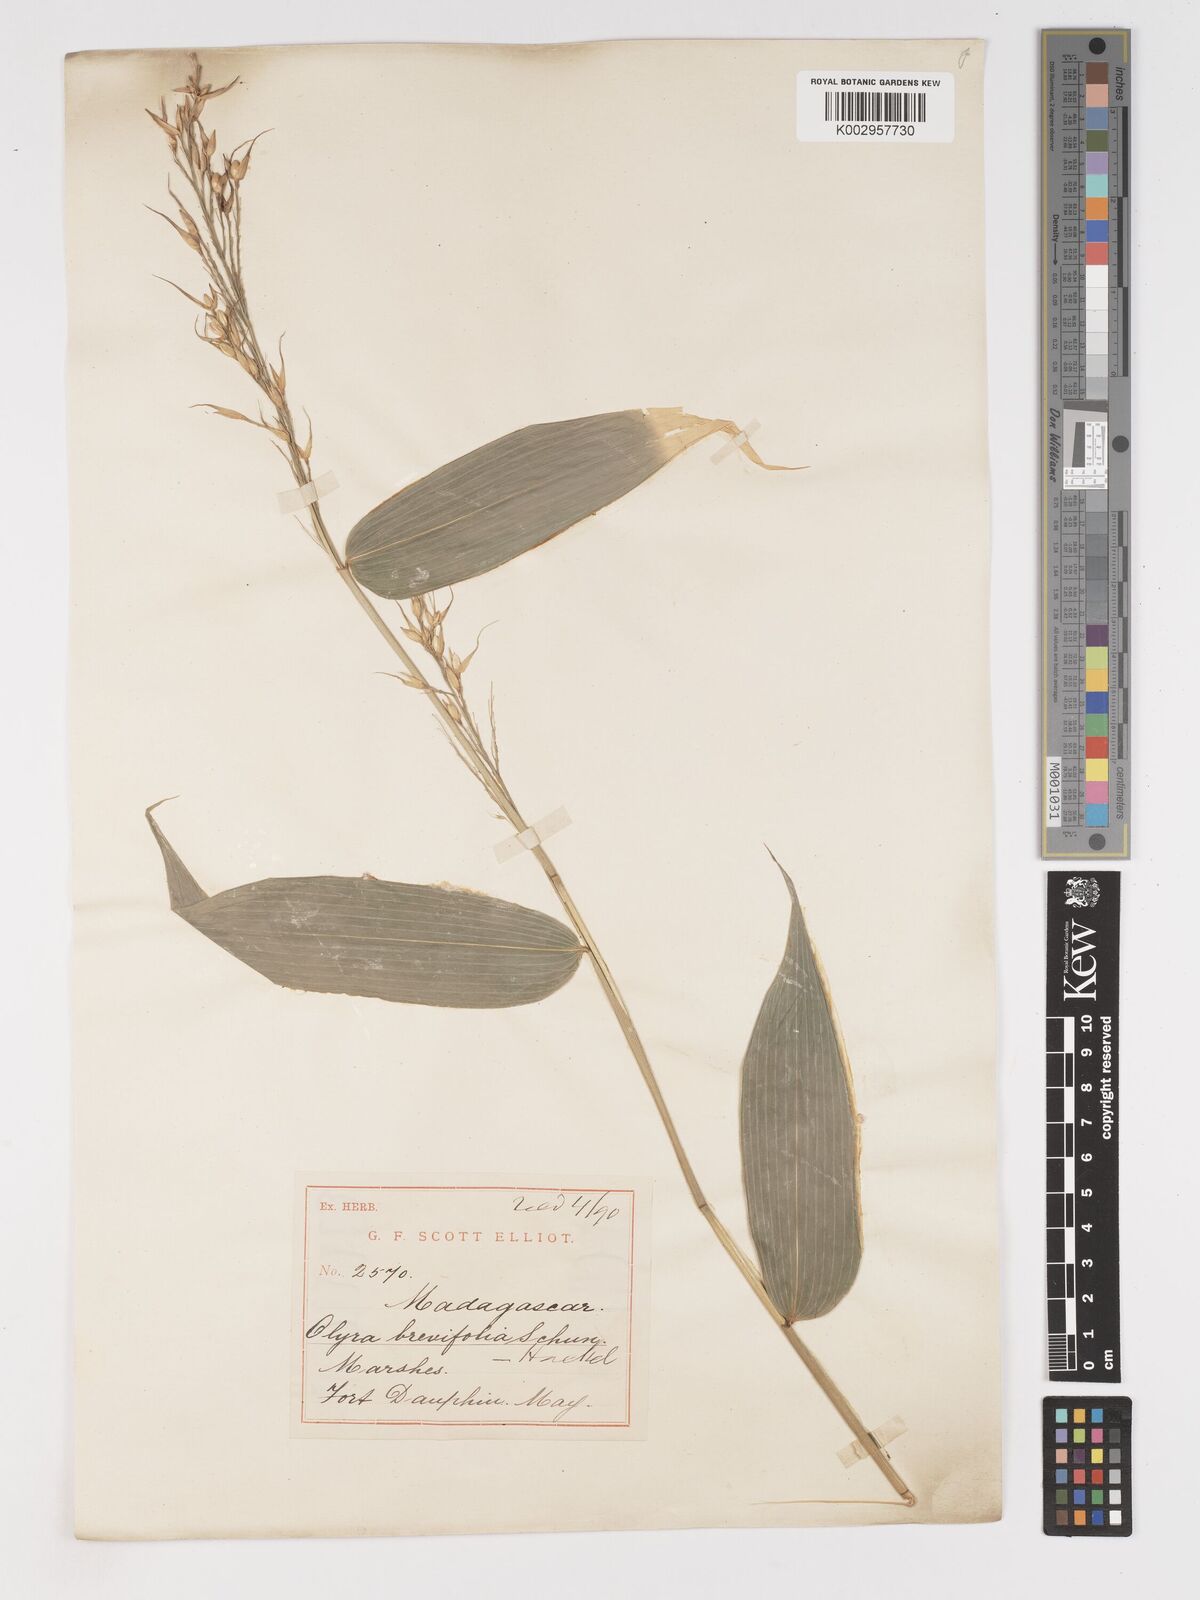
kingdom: Plantae
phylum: Tracheophyta
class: Liliopsida
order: Poales
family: Poaceae
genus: Olyra
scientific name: Olyra latifolia
